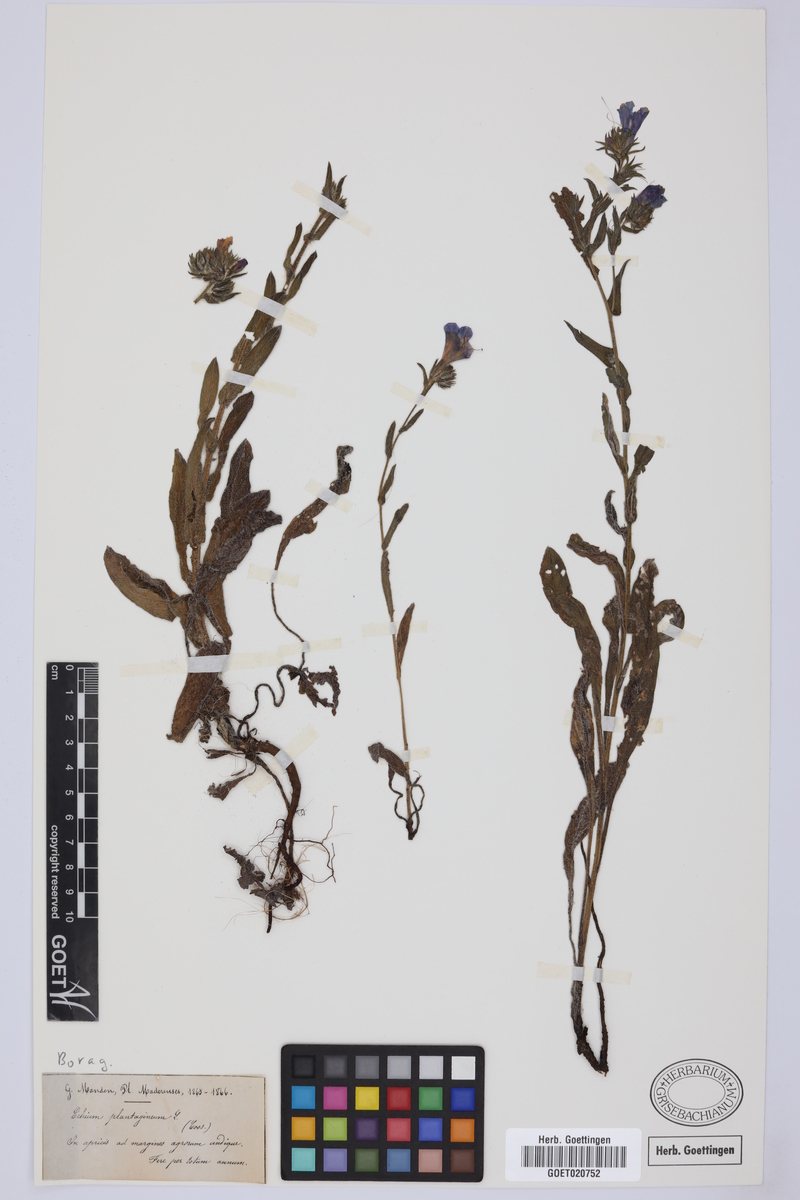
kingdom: Plantae
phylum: Tracheophyta
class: Magnoliopsida
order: Boraginales
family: Boraginaceae
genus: Echium
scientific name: Echium plantagineum
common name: Purple viper's-bugloss
